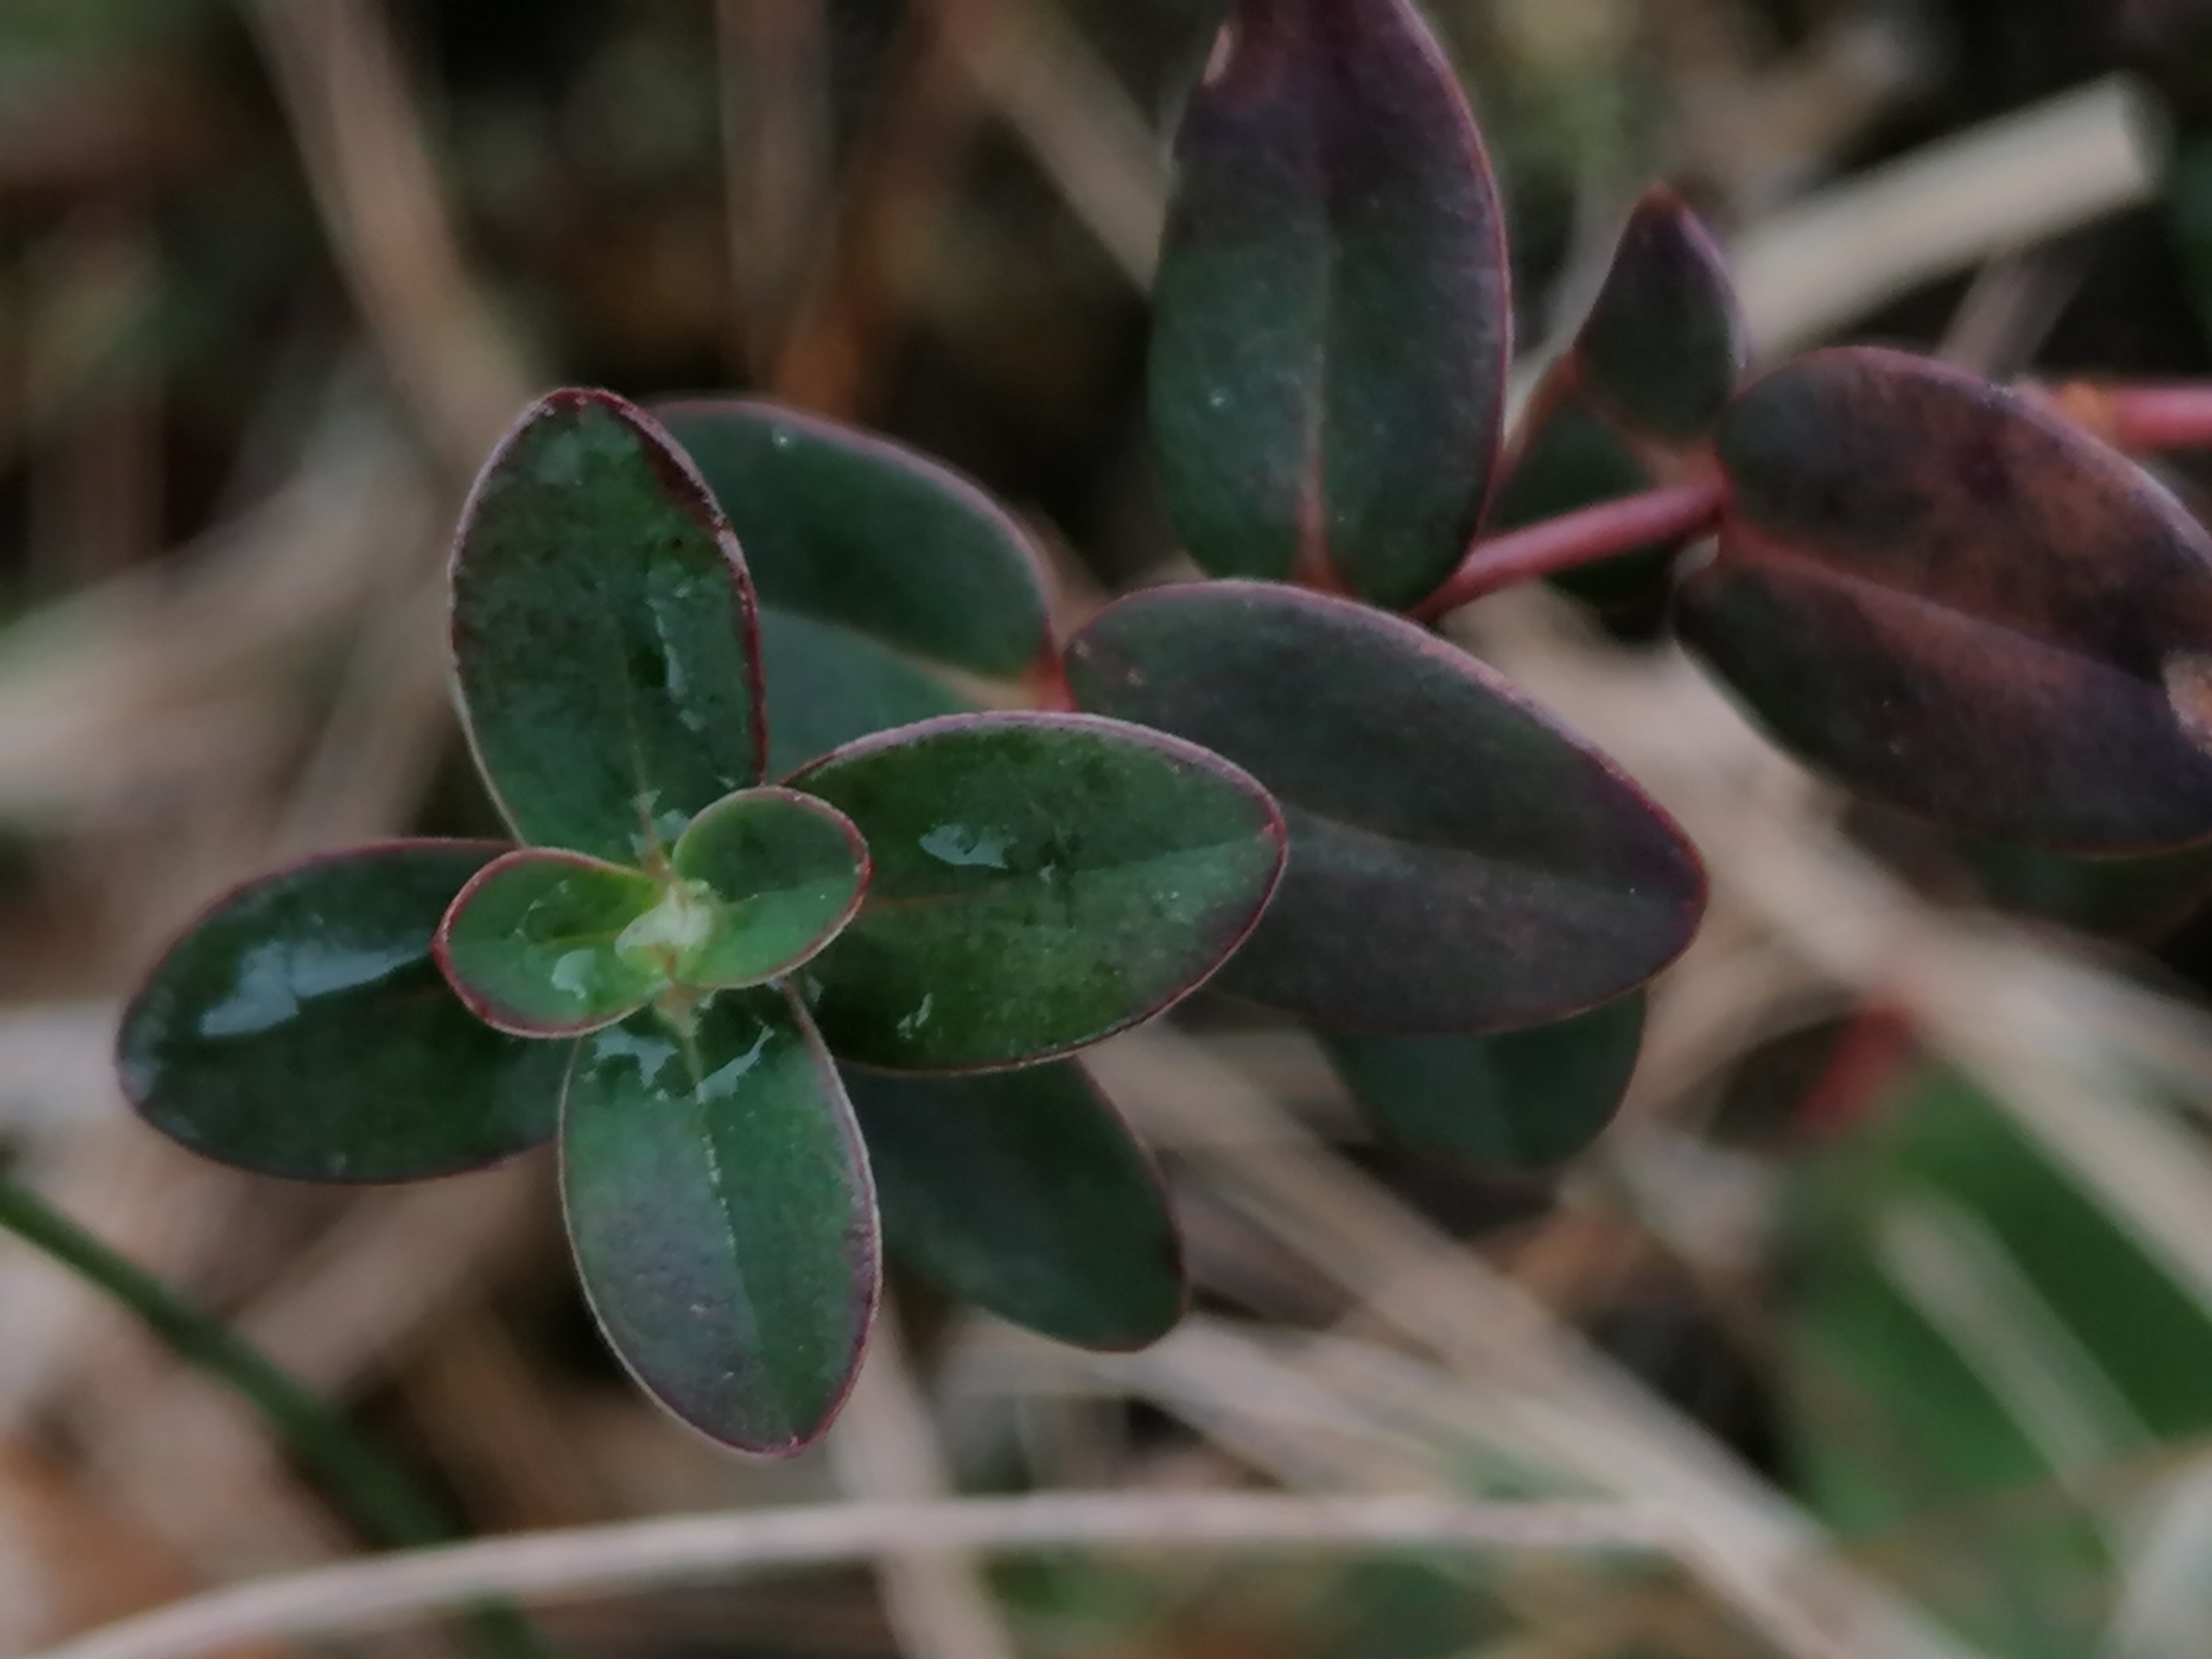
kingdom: Plantae
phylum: Tracheophyta
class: Magnoliopsida
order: Malpighiales
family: Hypericaceae
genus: Hypericum
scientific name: Hypericum pulchrum
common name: Smuk perikon
